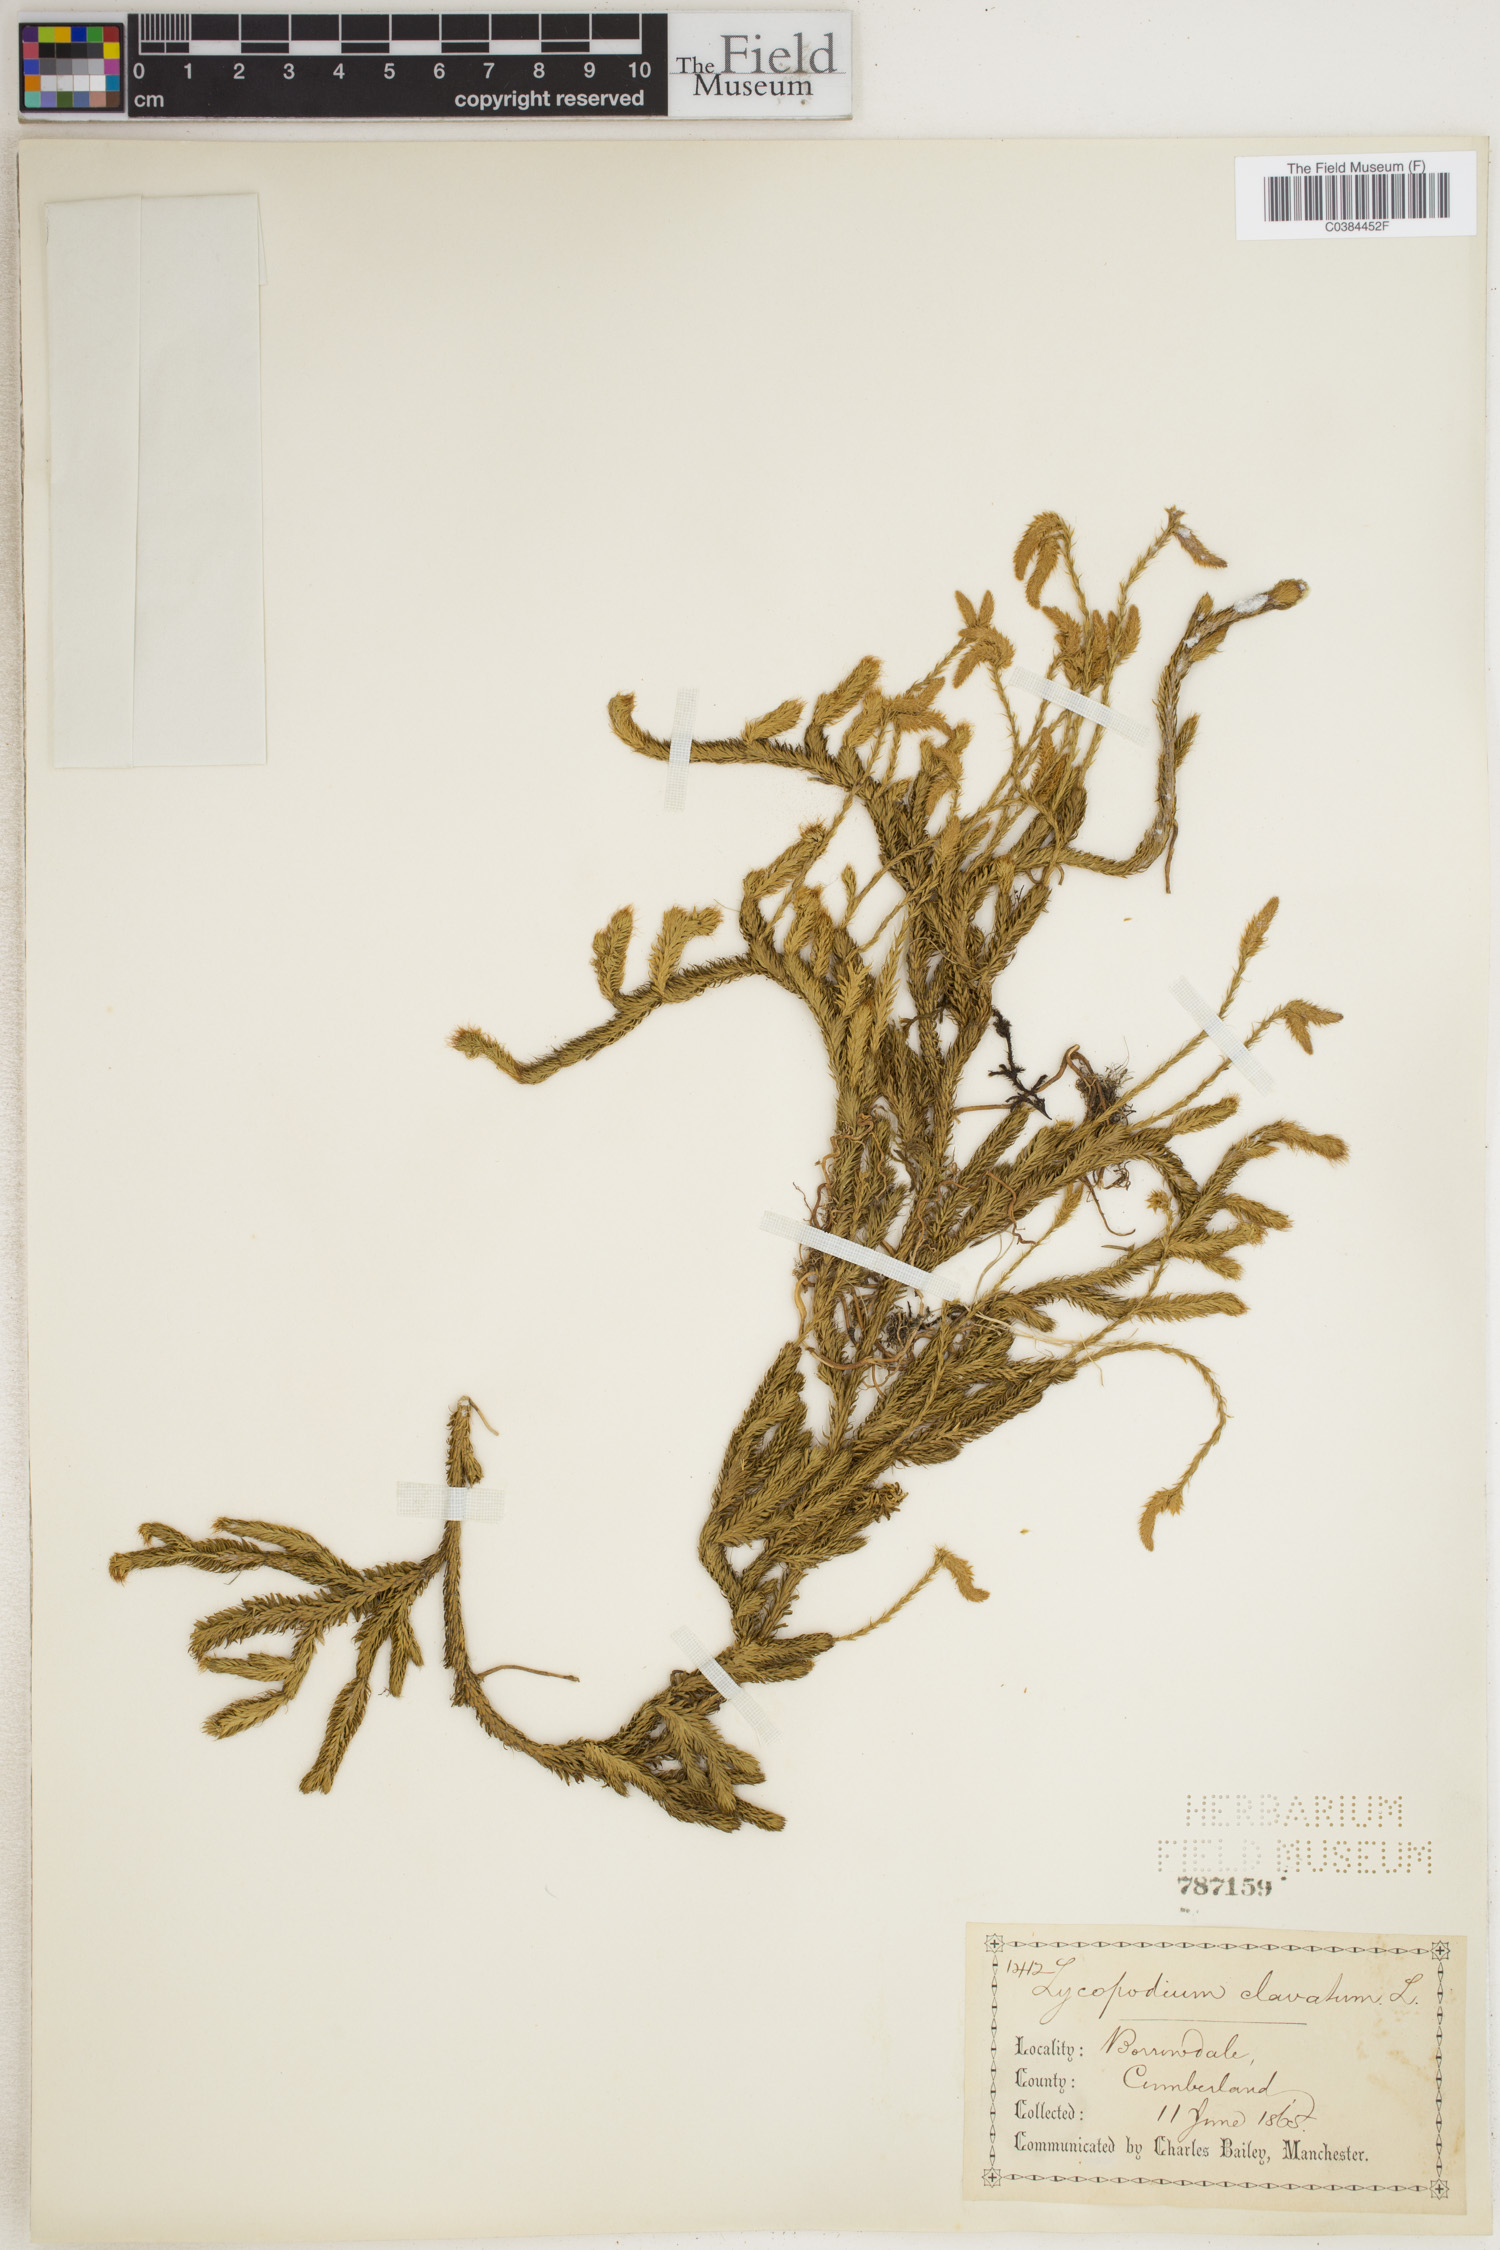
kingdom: Plantae
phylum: Tracheophyta
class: Lycopodiopsida
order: Lycopodiales
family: Lycopodiaceae
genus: Lycopodium
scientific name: Lycopodium clavatum
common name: Stag's-horn clubmoss
